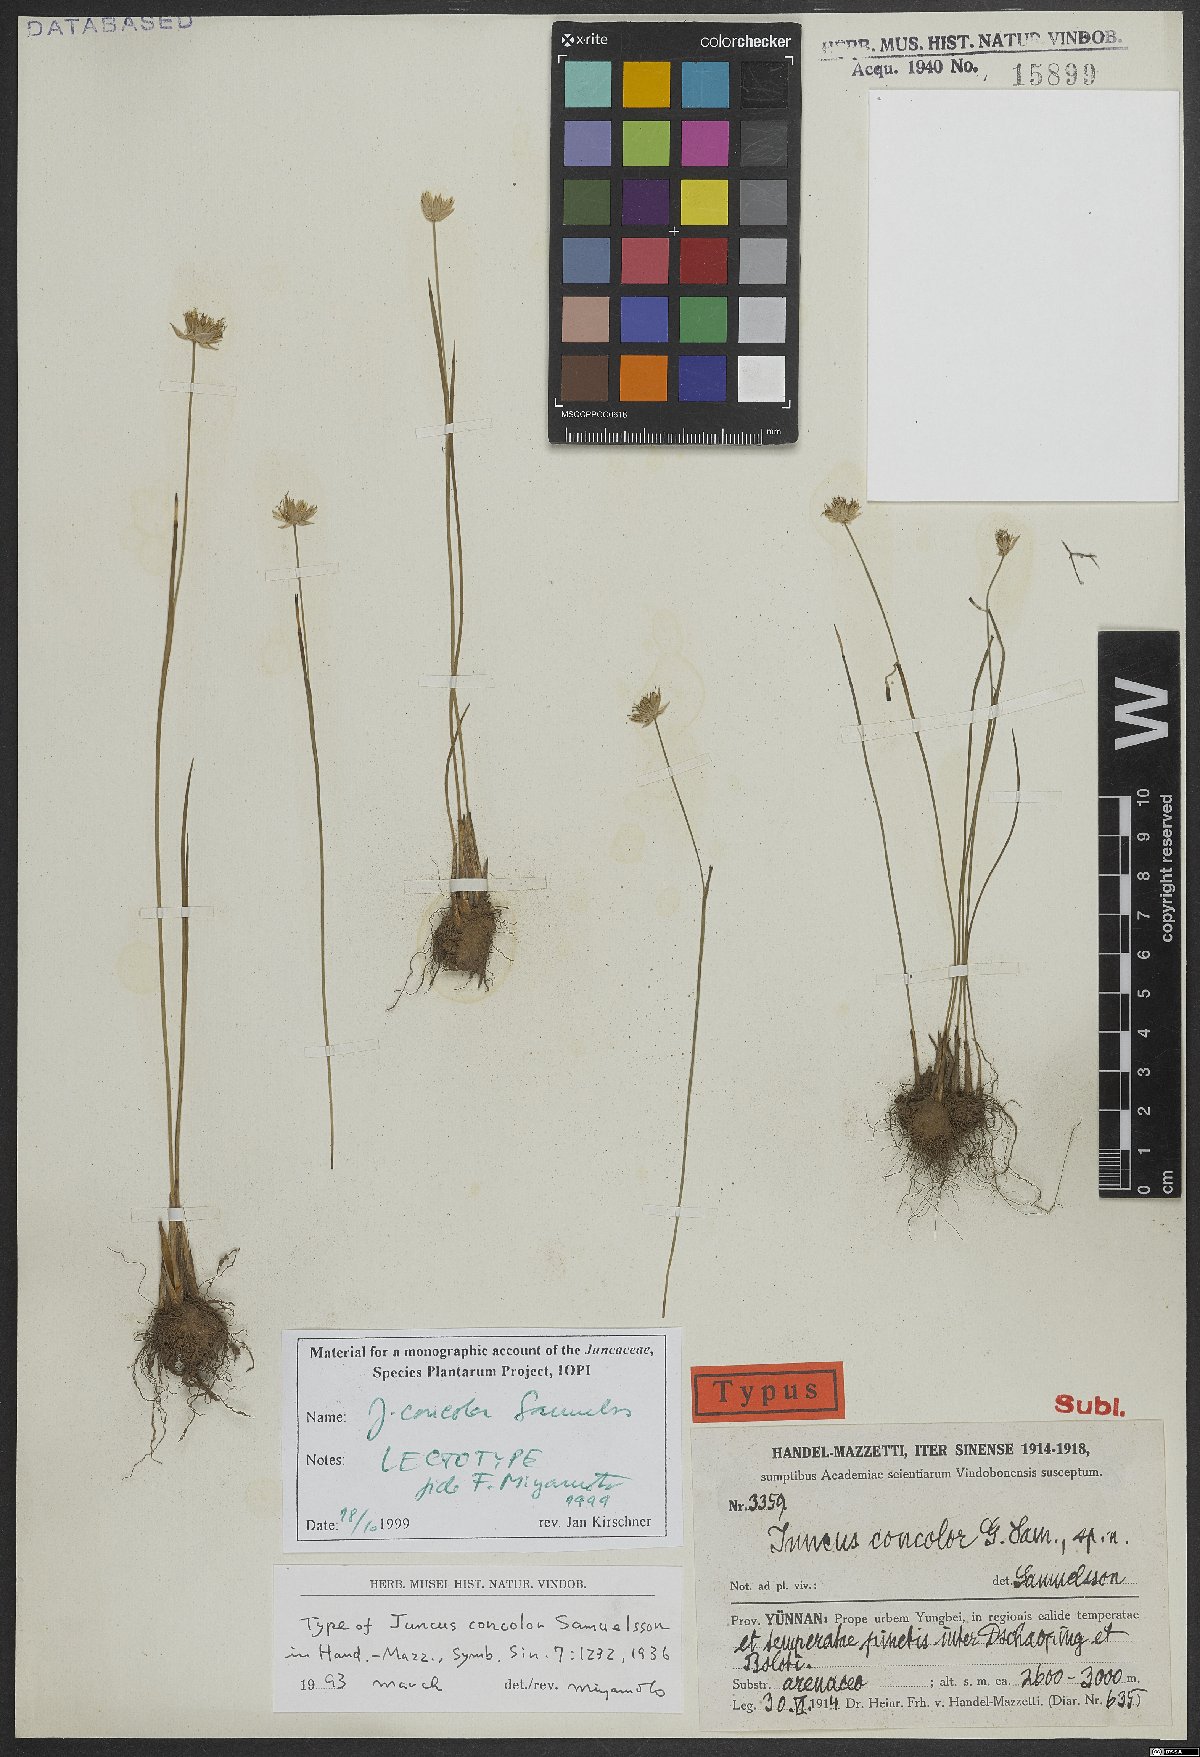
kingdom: Plantae
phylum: Tracheophyta
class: Liliopsida
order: Poales
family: Juncaceae
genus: Juncus
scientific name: Juncus concolor
